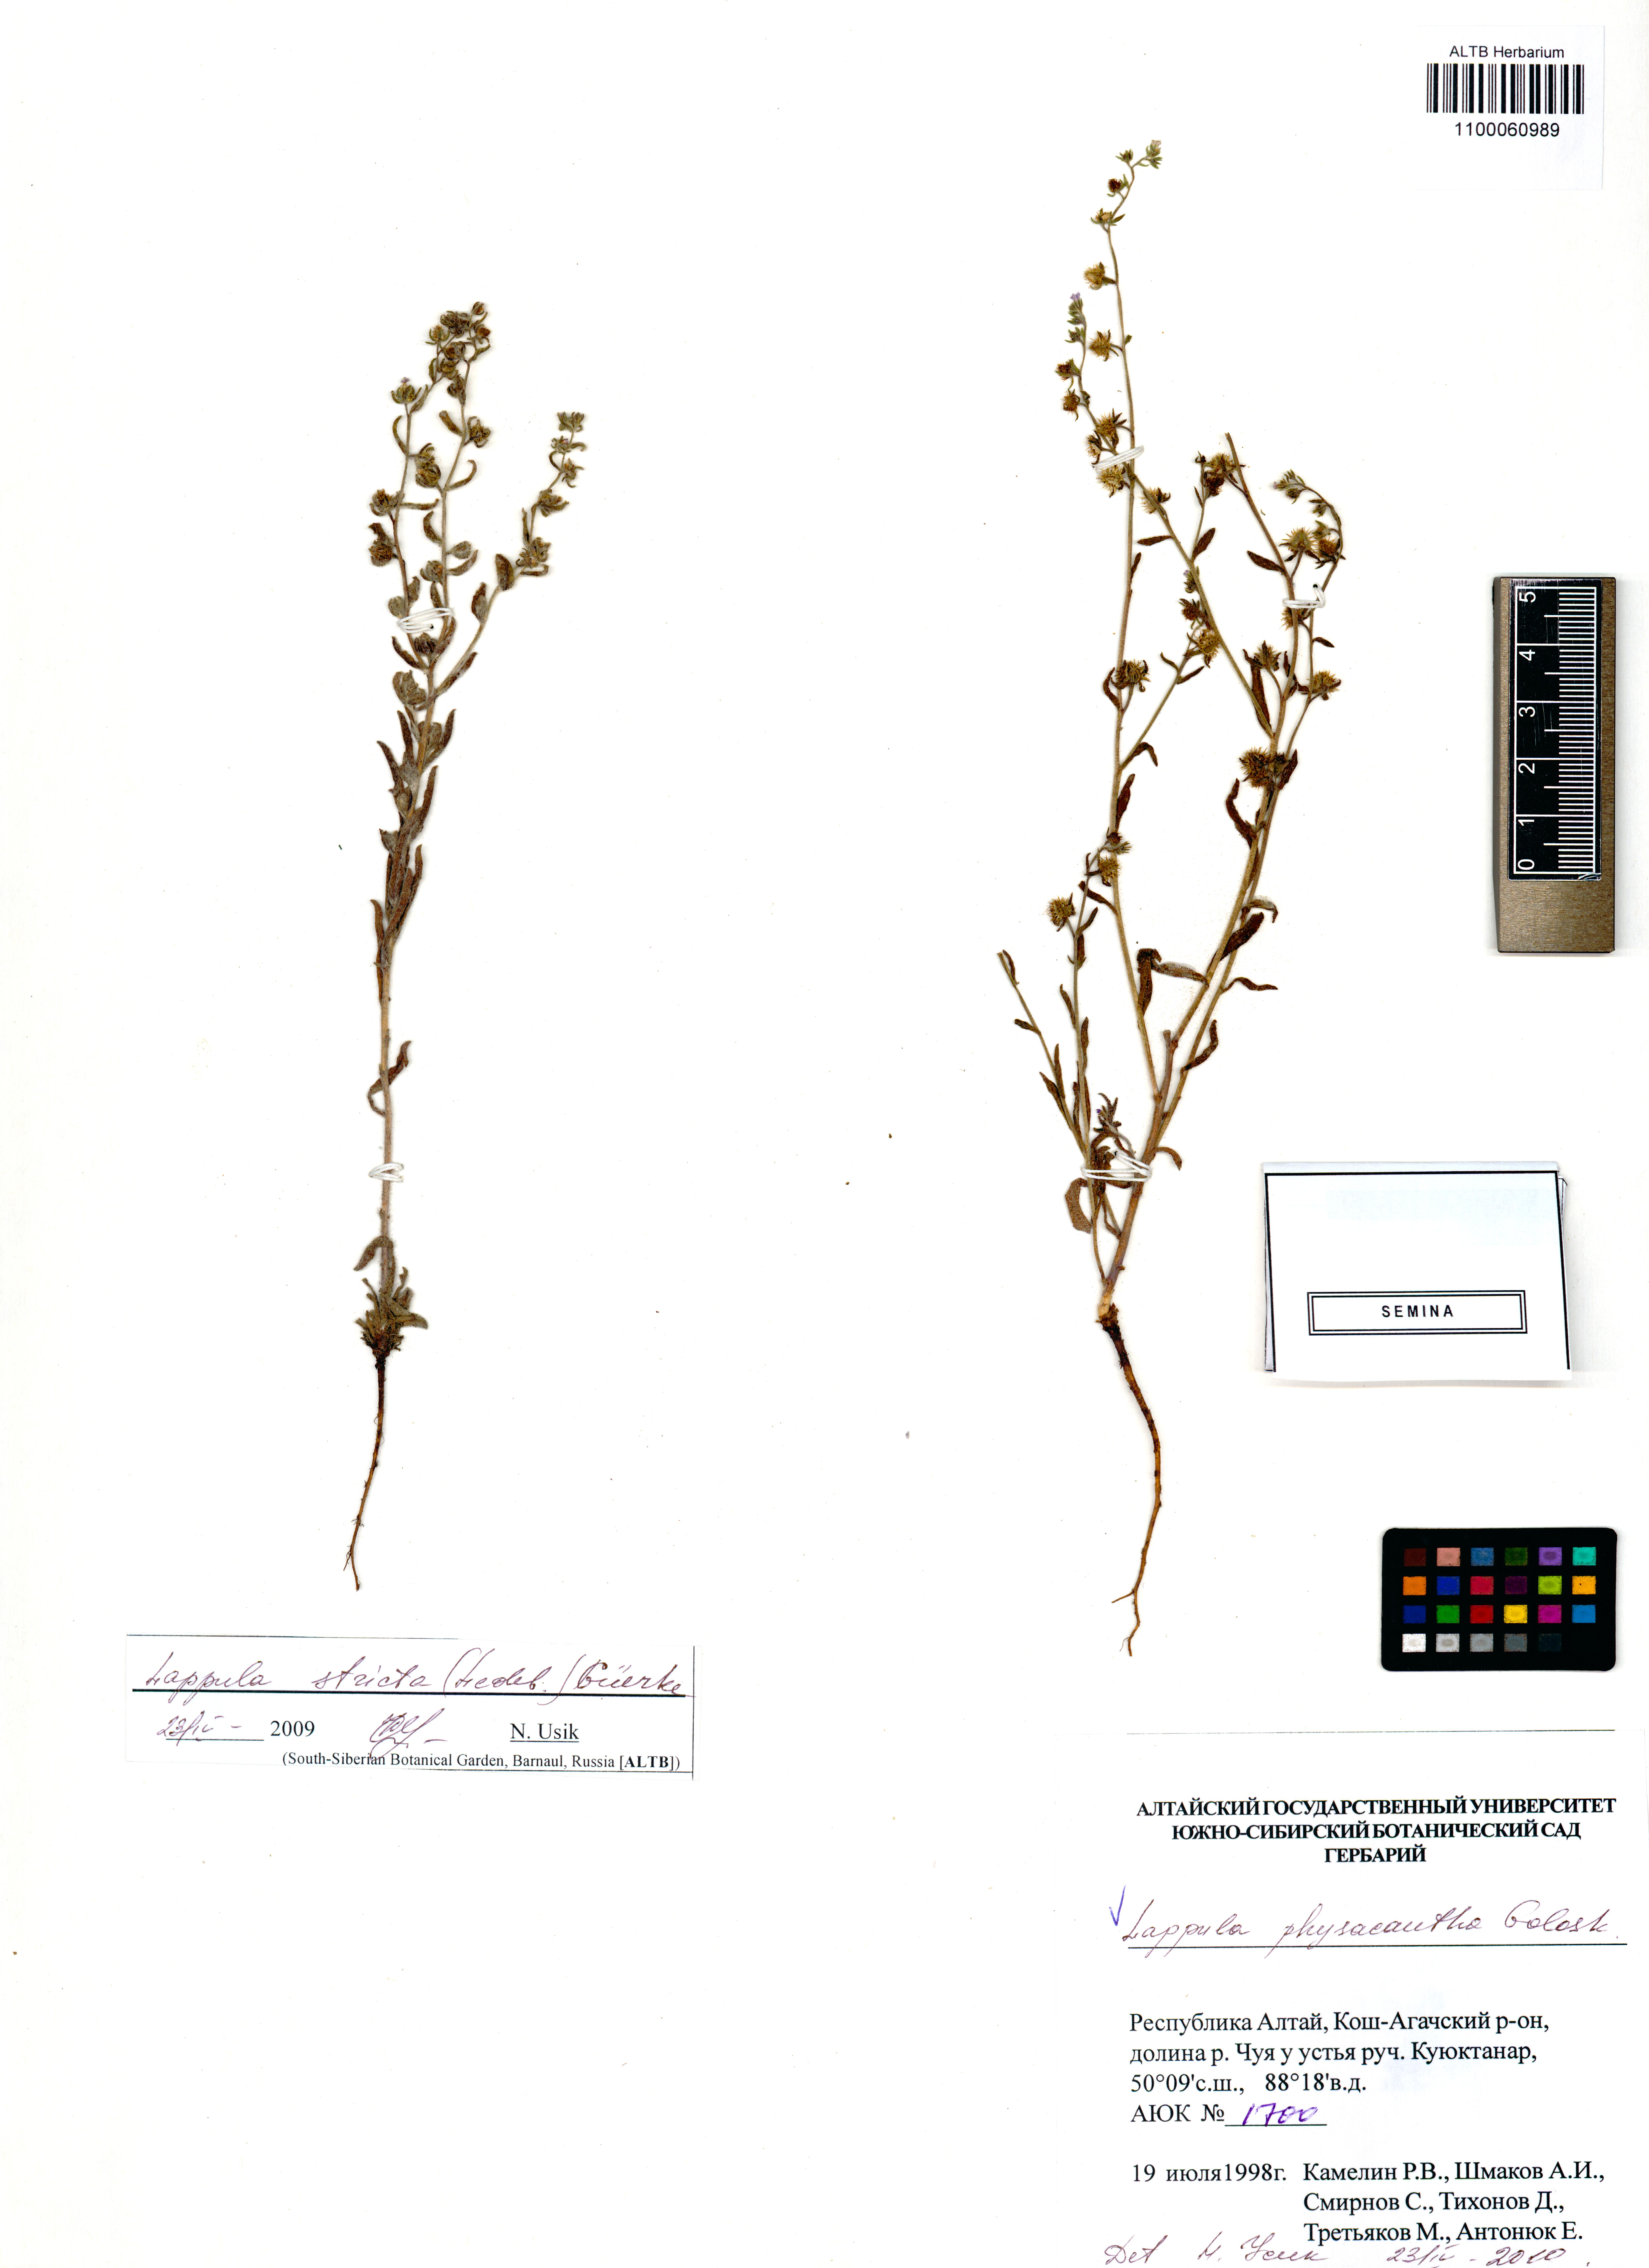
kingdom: Plantae
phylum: Tracheophyta
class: Magnoliopsida
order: Boraginales
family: Boraginaceae
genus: Lappula
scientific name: Lappula physacantha
